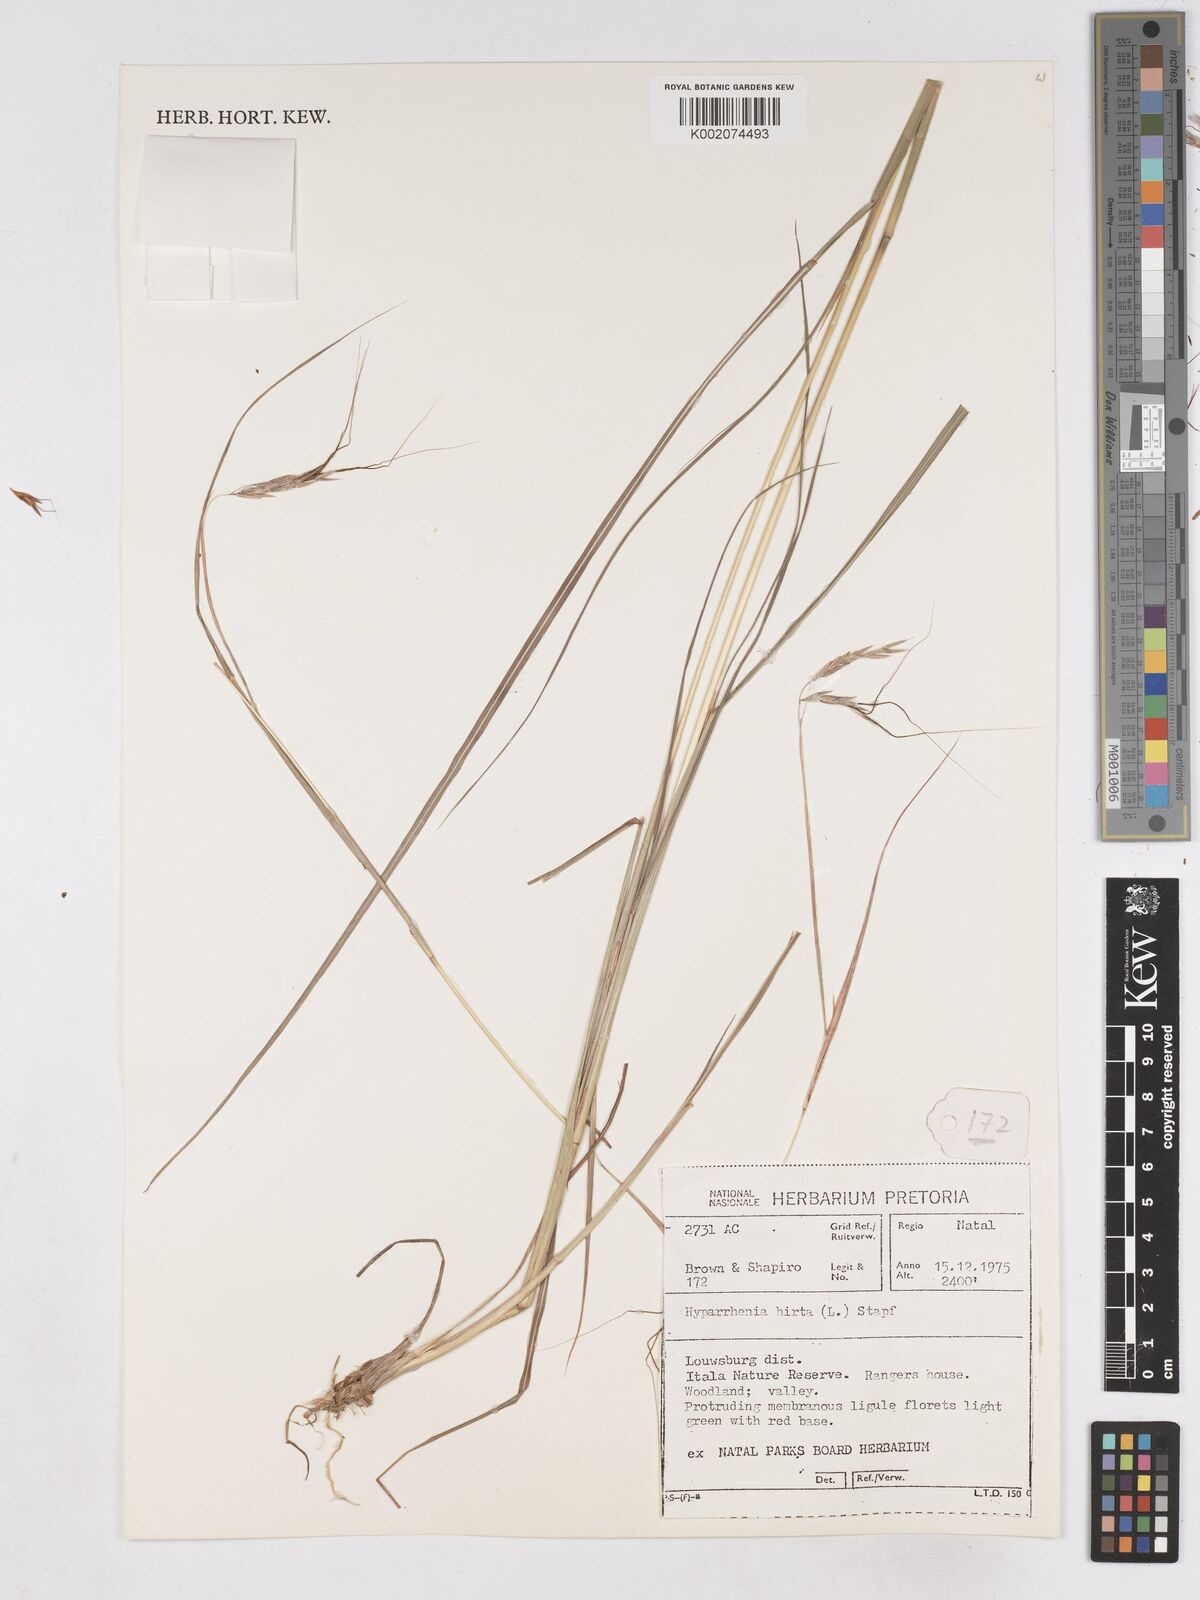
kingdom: Plantae
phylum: Tracheophyta
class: Liliopsida
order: Poales
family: Poaceae
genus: Hyparrhenia
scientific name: Hyparrhenia hirta
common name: Thatching grass
